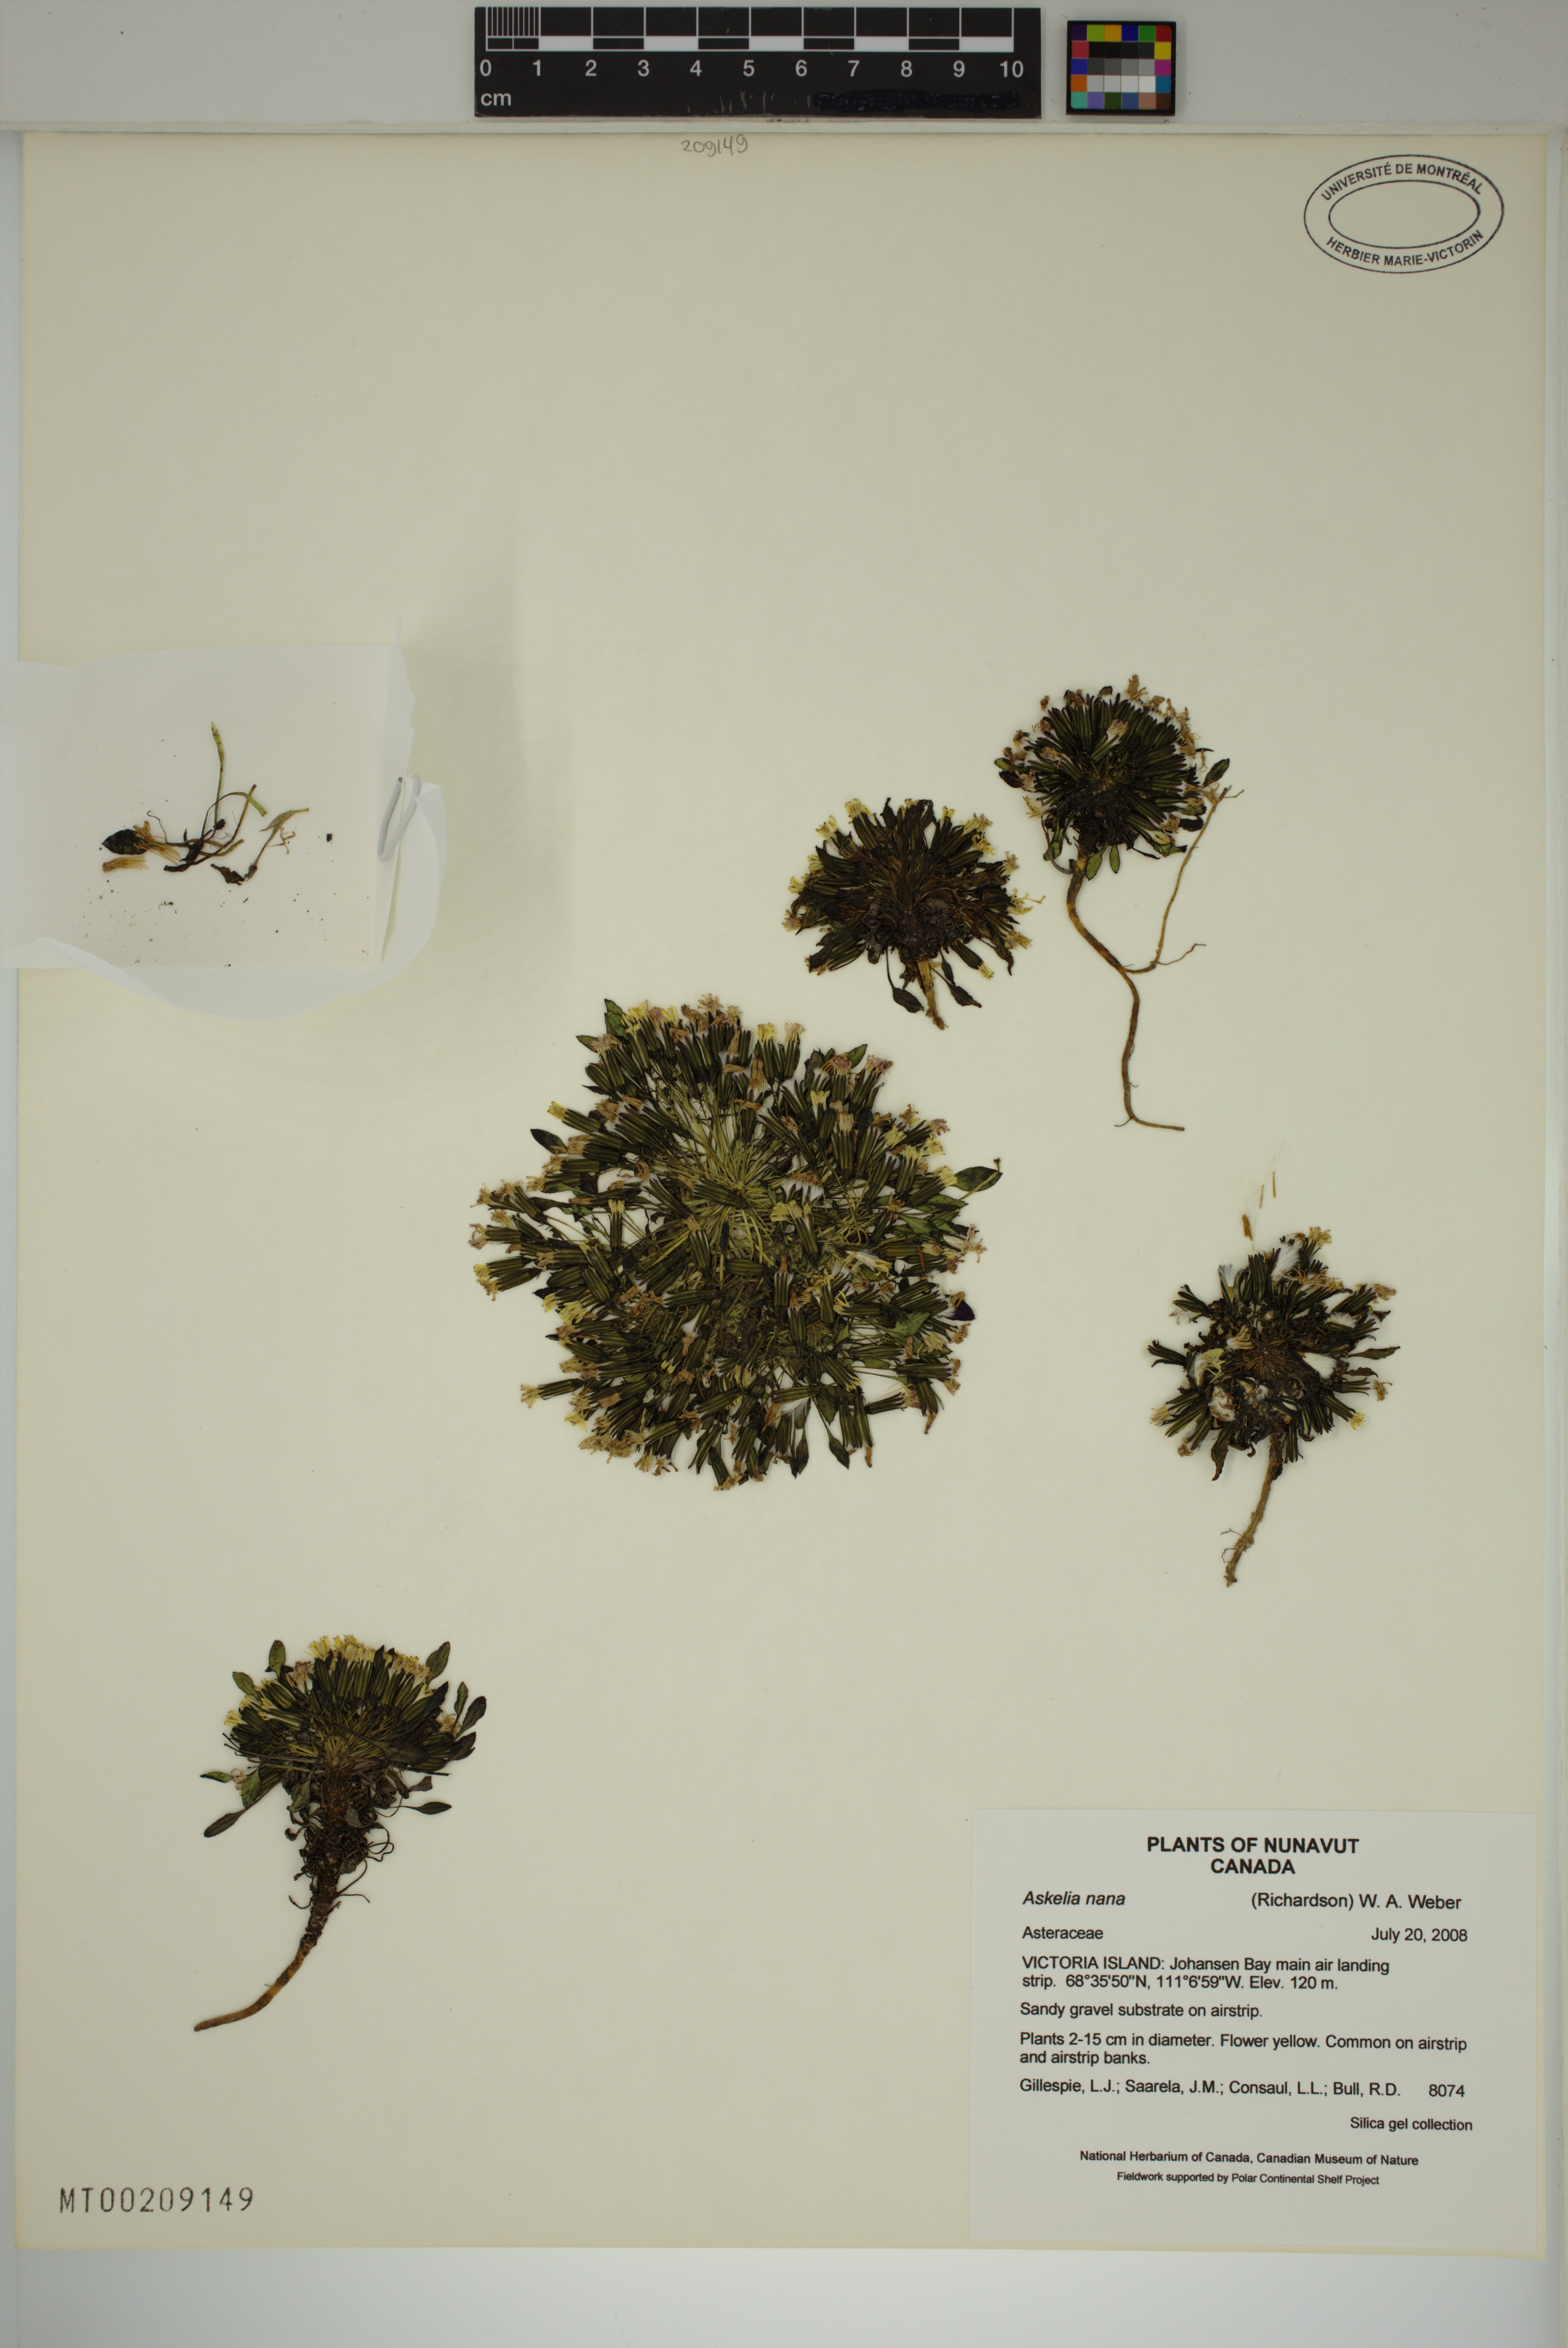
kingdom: Plantae
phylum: Tracheophyta
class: Magnoliopsida
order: Asterales
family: Asteraceae
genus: Askellia
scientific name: Askellia pygmaea
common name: Dwarf alpine hawksbeard
